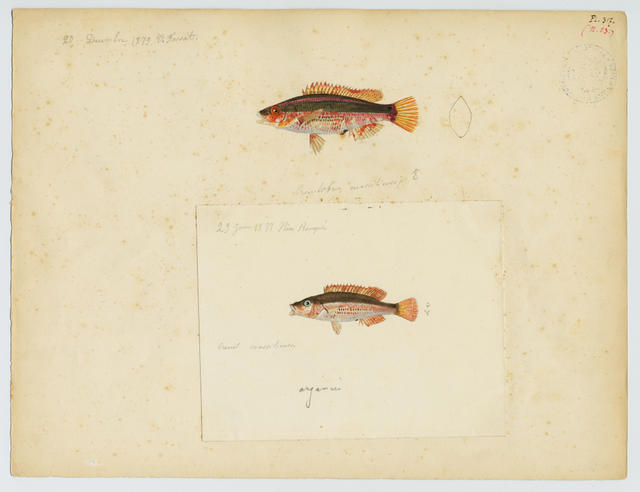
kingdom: Animalia
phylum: Chordata
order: Perciformes
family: Labridae
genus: Symphodus
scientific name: Symphodus mediterraneus
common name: Axillary wrasse
